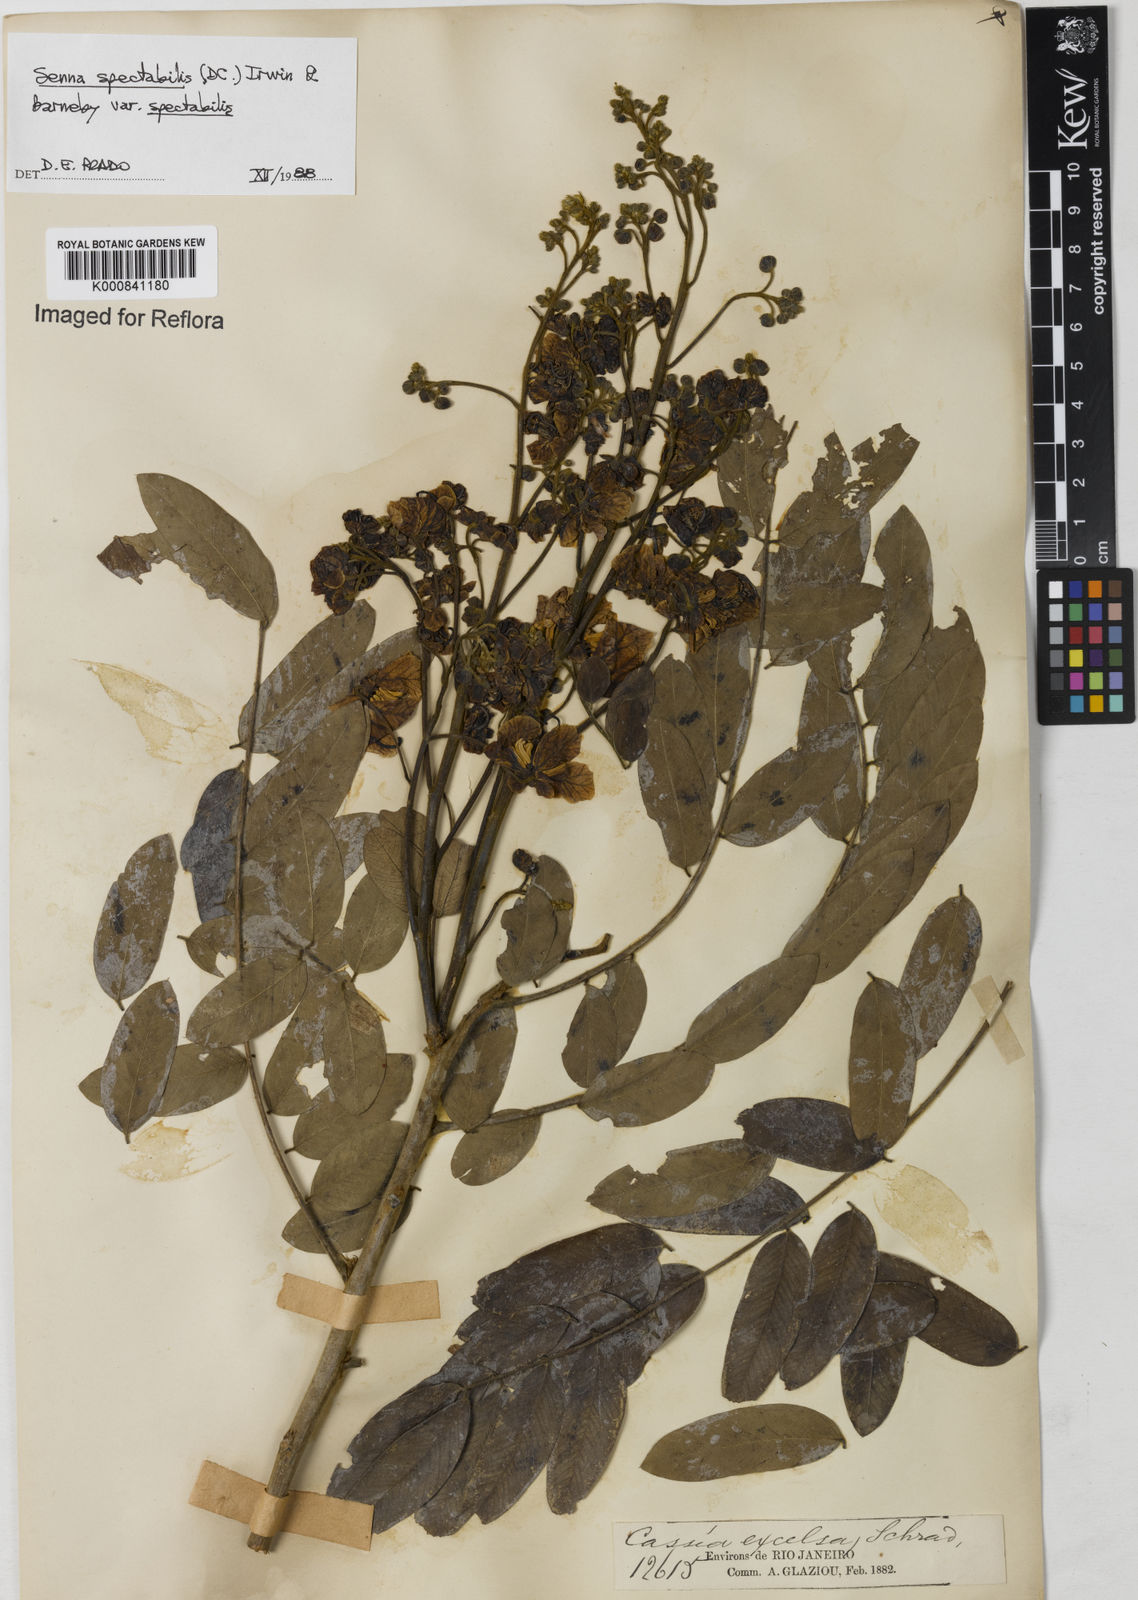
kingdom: Plantae
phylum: Tracheophyta
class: Magnoliopsida
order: Fabales
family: Fabaceae
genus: Senna
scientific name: Senna spectabilis
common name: Casia amarilla
